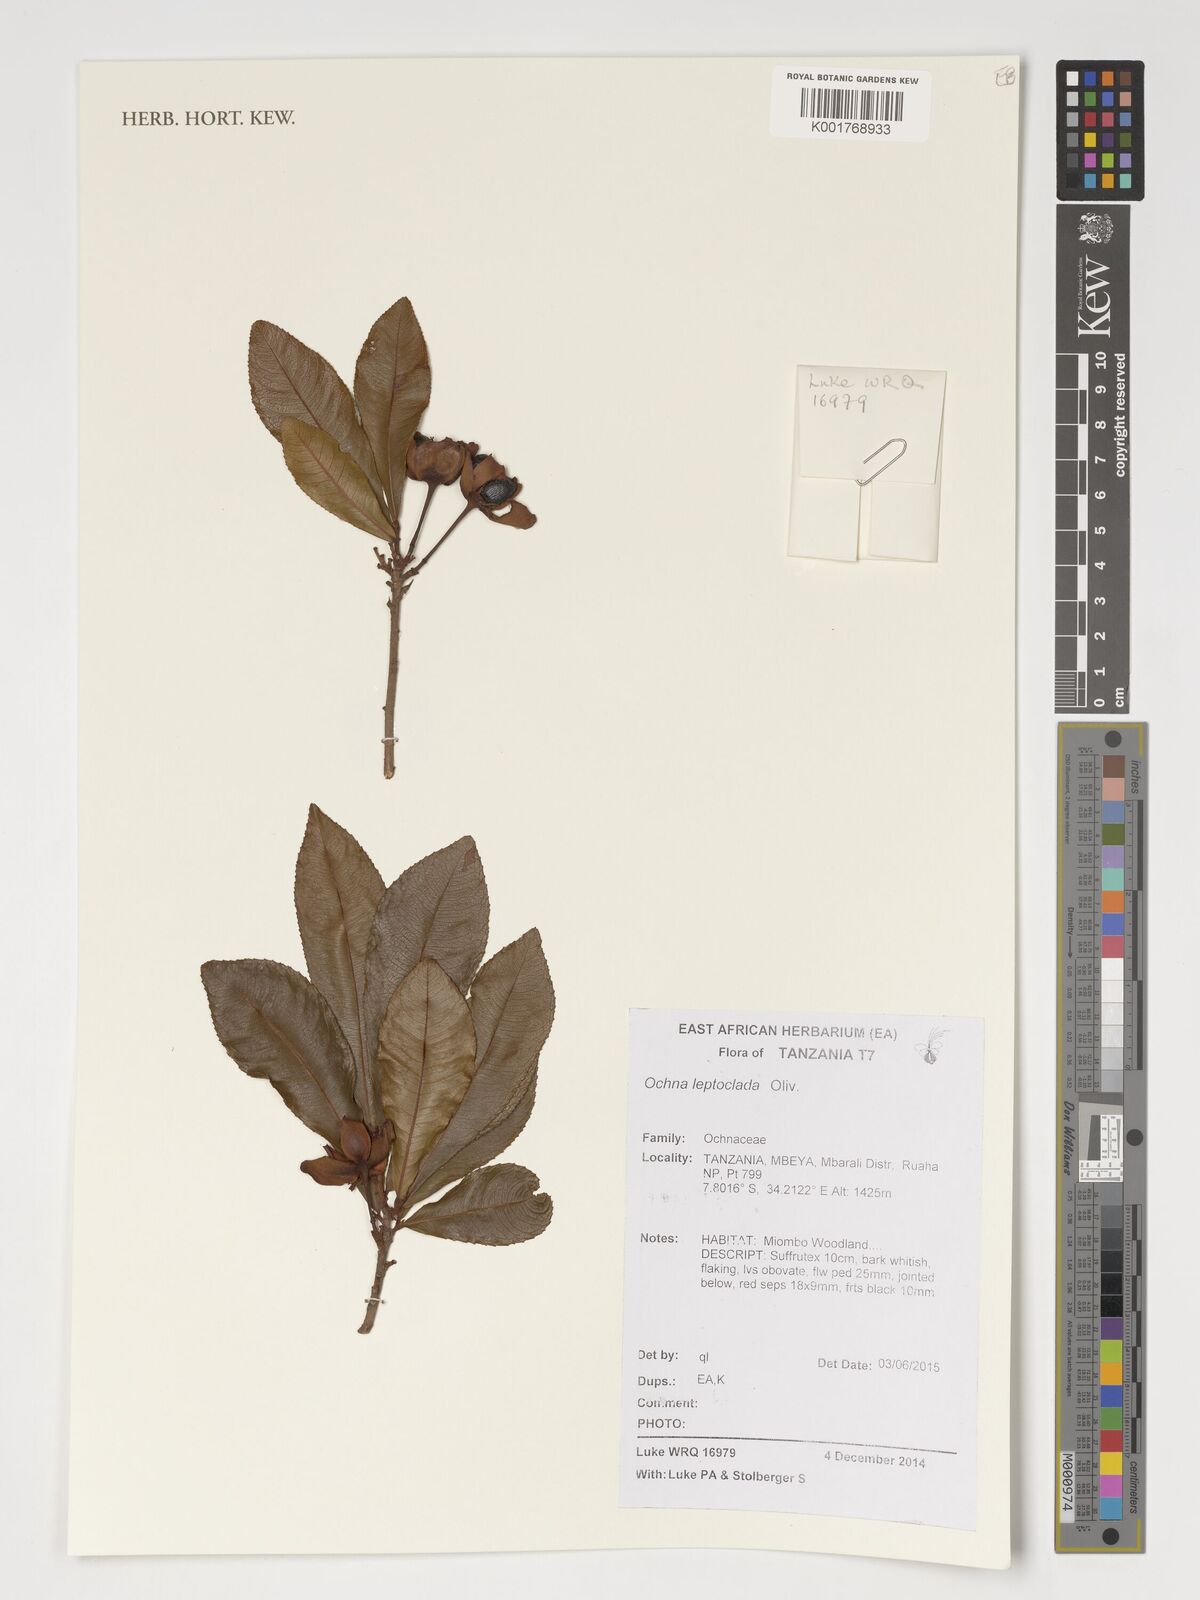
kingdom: Plantae
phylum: Tracheophyta
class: Magnoliopsida
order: Malpighiales
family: Ochnaceae
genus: Ochna
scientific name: Ochna leptoclada
